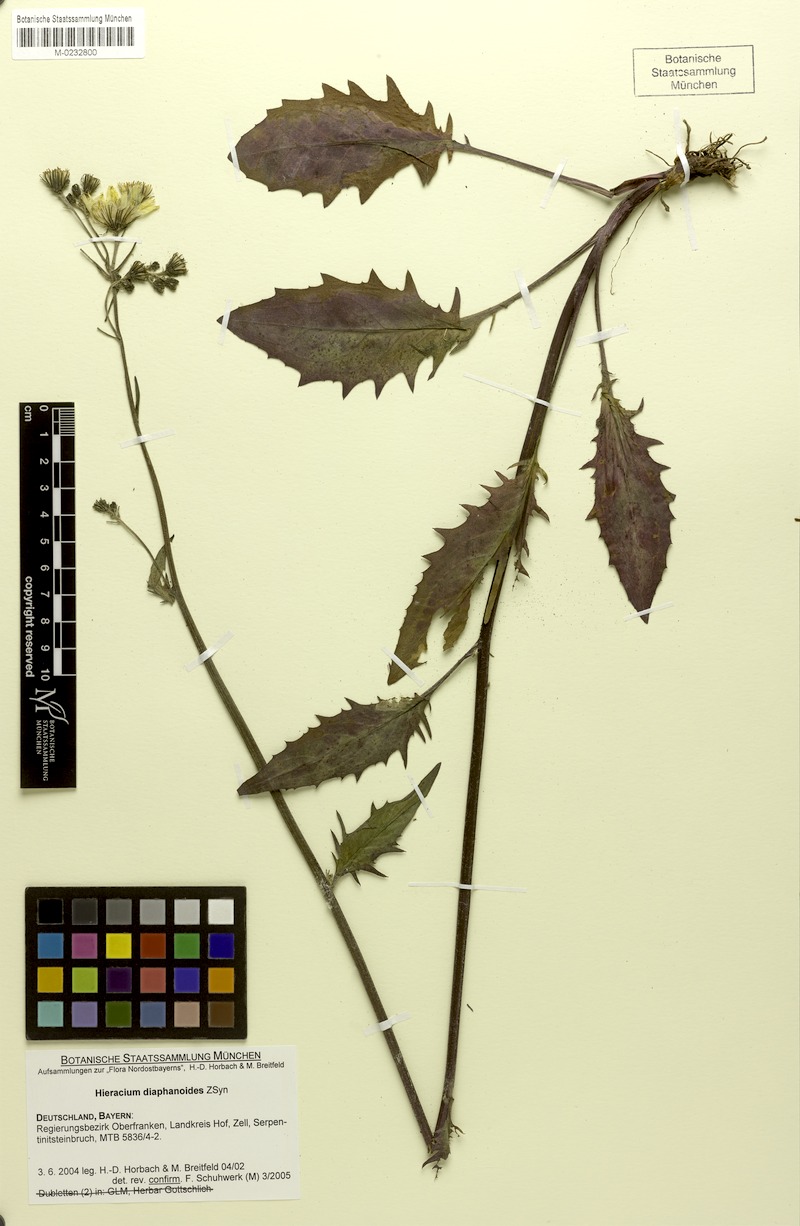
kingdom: Plantae
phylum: Tracheophyta
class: Magnoliopsida
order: Asterales
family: Asteraceae
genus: Hieracium
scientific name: Hieracium diaphanoides
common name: Fine-bracted hawkweed
